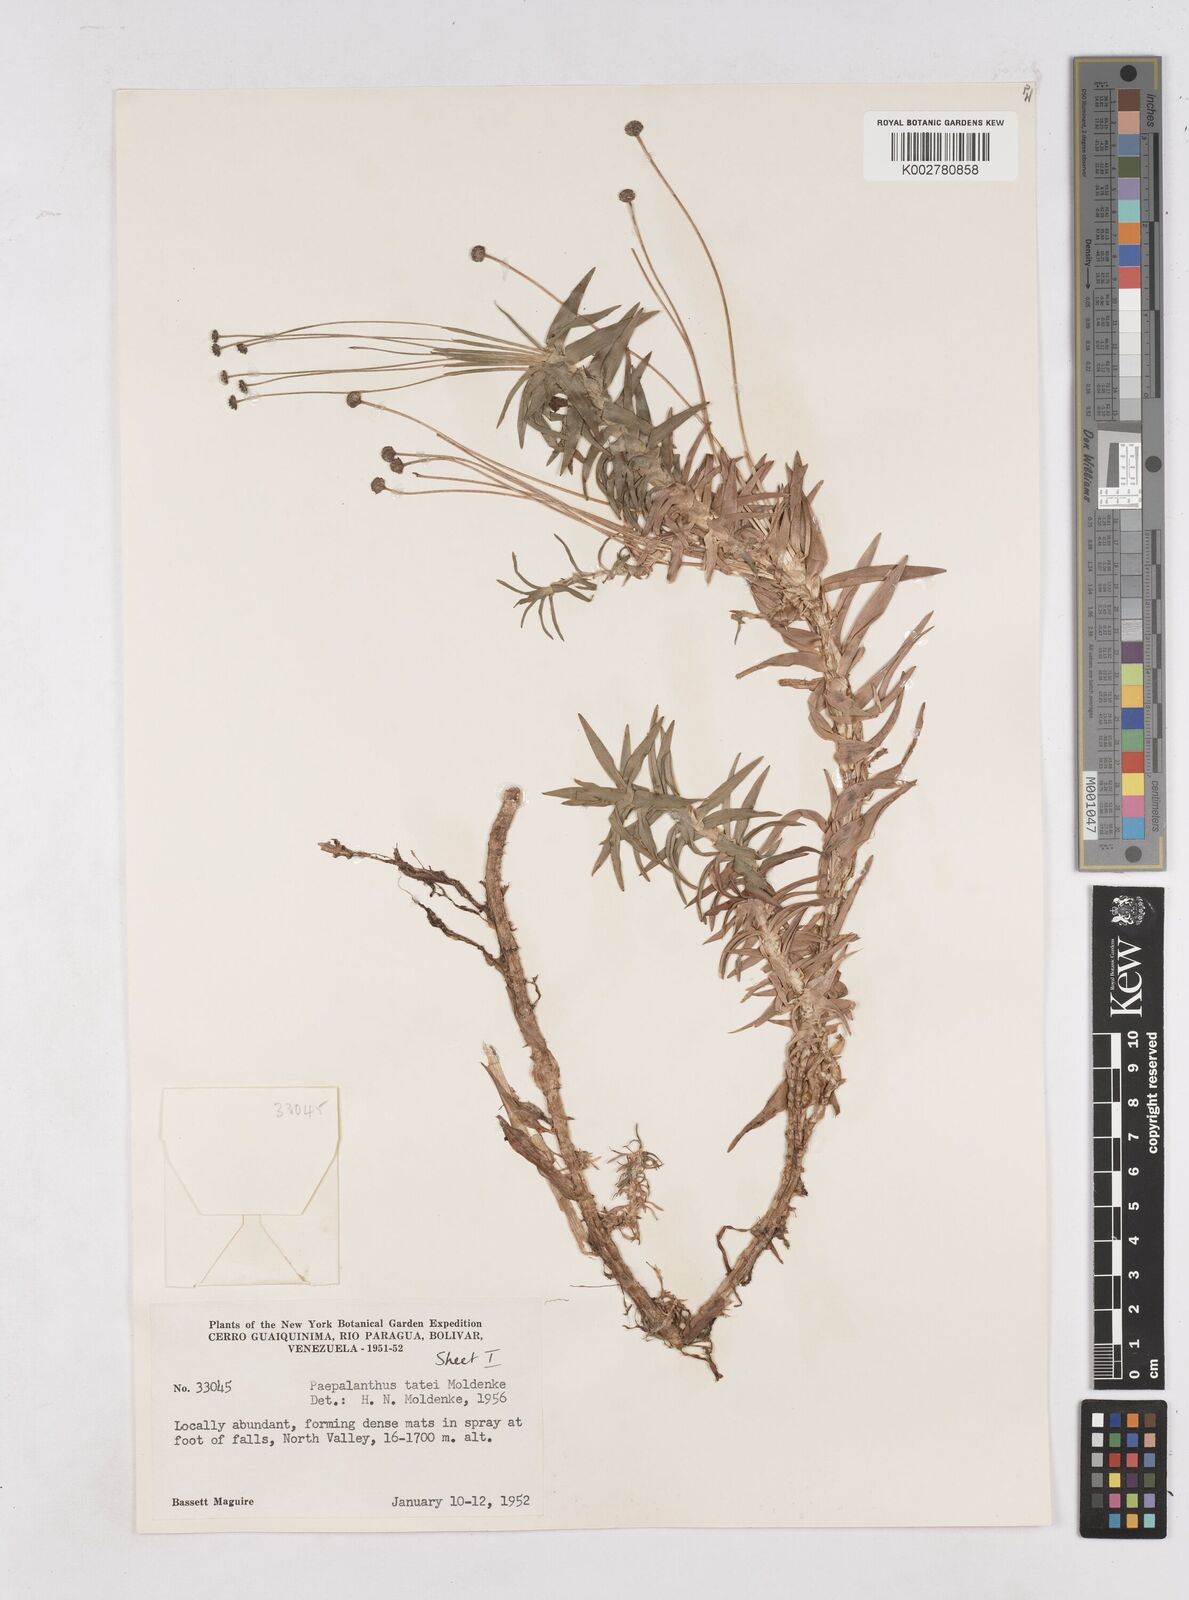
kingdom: Plantae
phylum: Tracheophyta
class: Liliopsida
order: Poales
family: Eriocaulaceae
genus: Paepalanthus
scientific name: Paepalanthus tortilis
